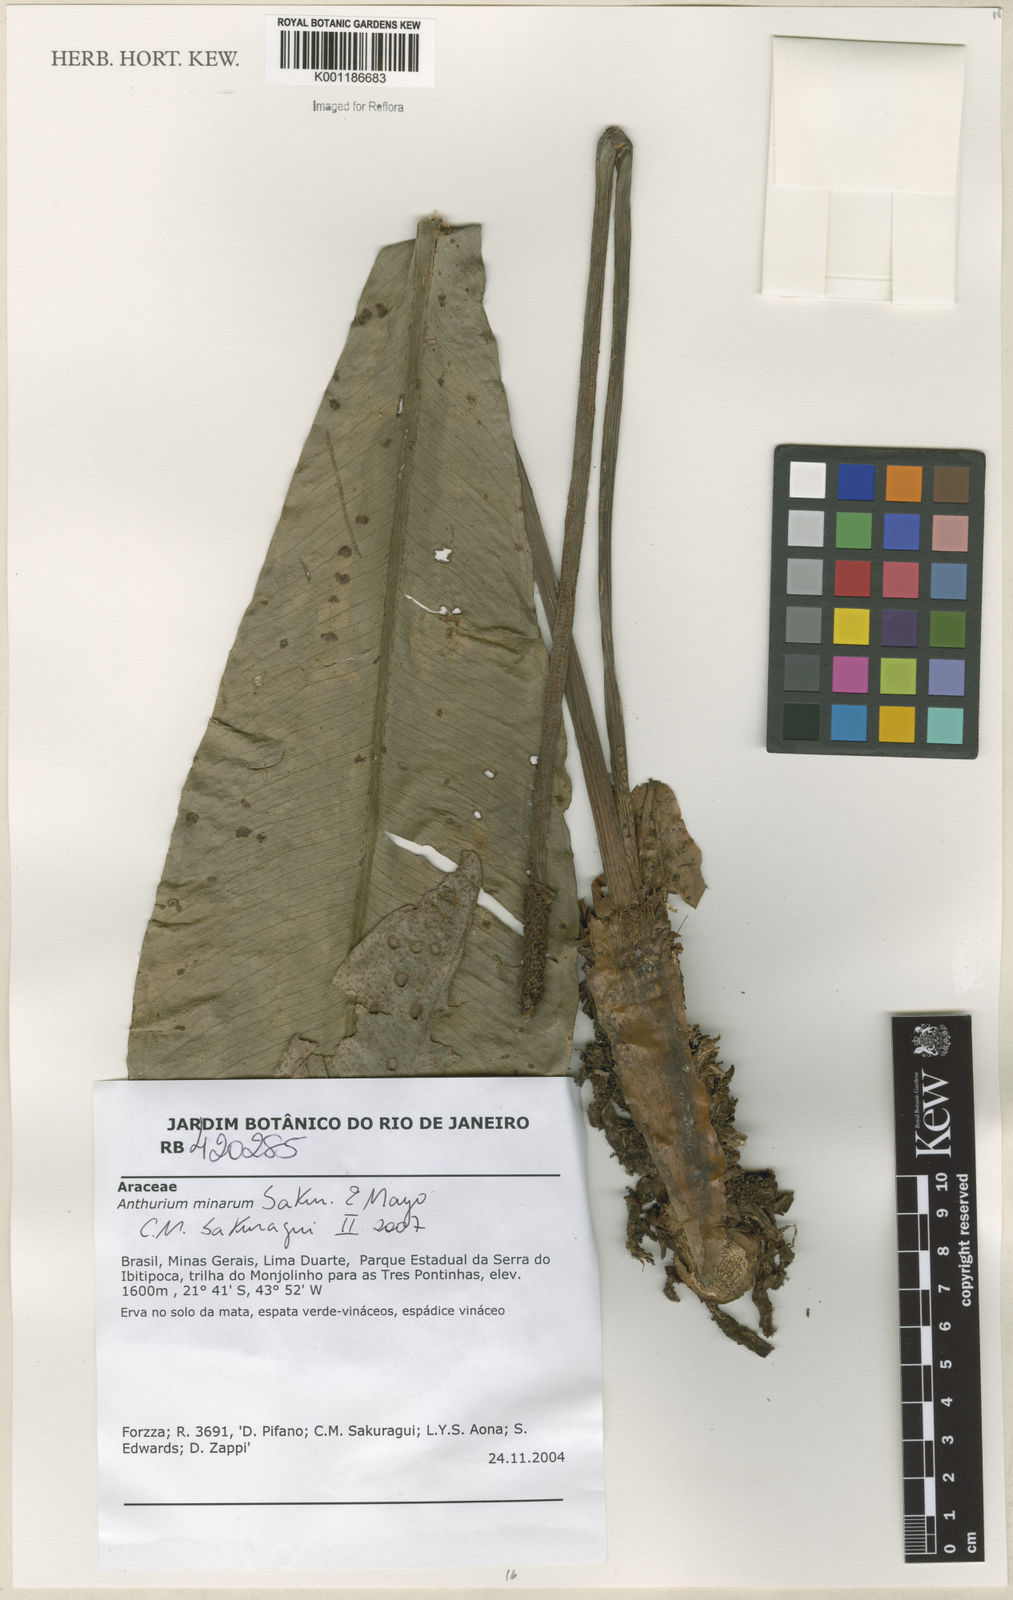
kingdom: Plantae
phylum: Tracheophyta
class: Liliopsida
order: Alismatales
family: Araceae
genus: Anthurium
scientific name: Anthurium minarum
